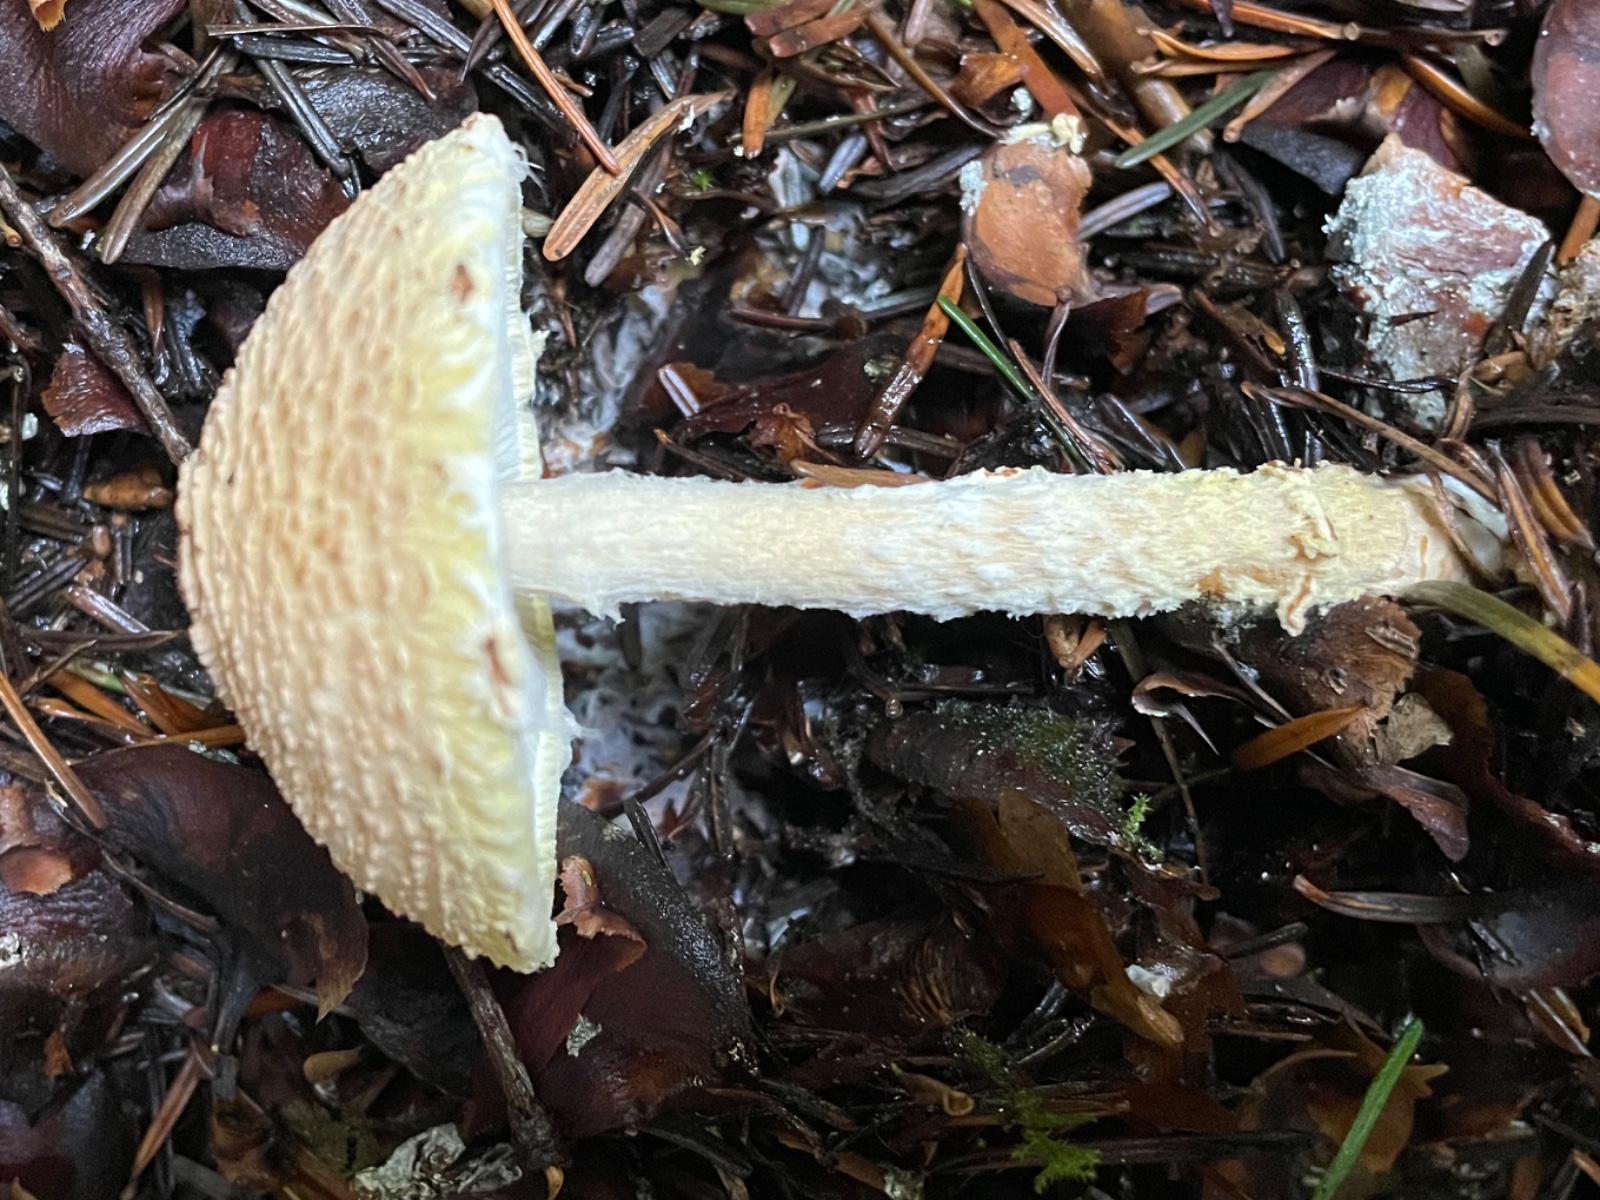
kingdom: Fungi
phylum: Basidiomycota
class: Agaricomycetes
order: Agaricales
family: Agaricaceae
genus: Lepiota
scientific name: Lepiota magnispora
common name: gulfnugget parasolhat
